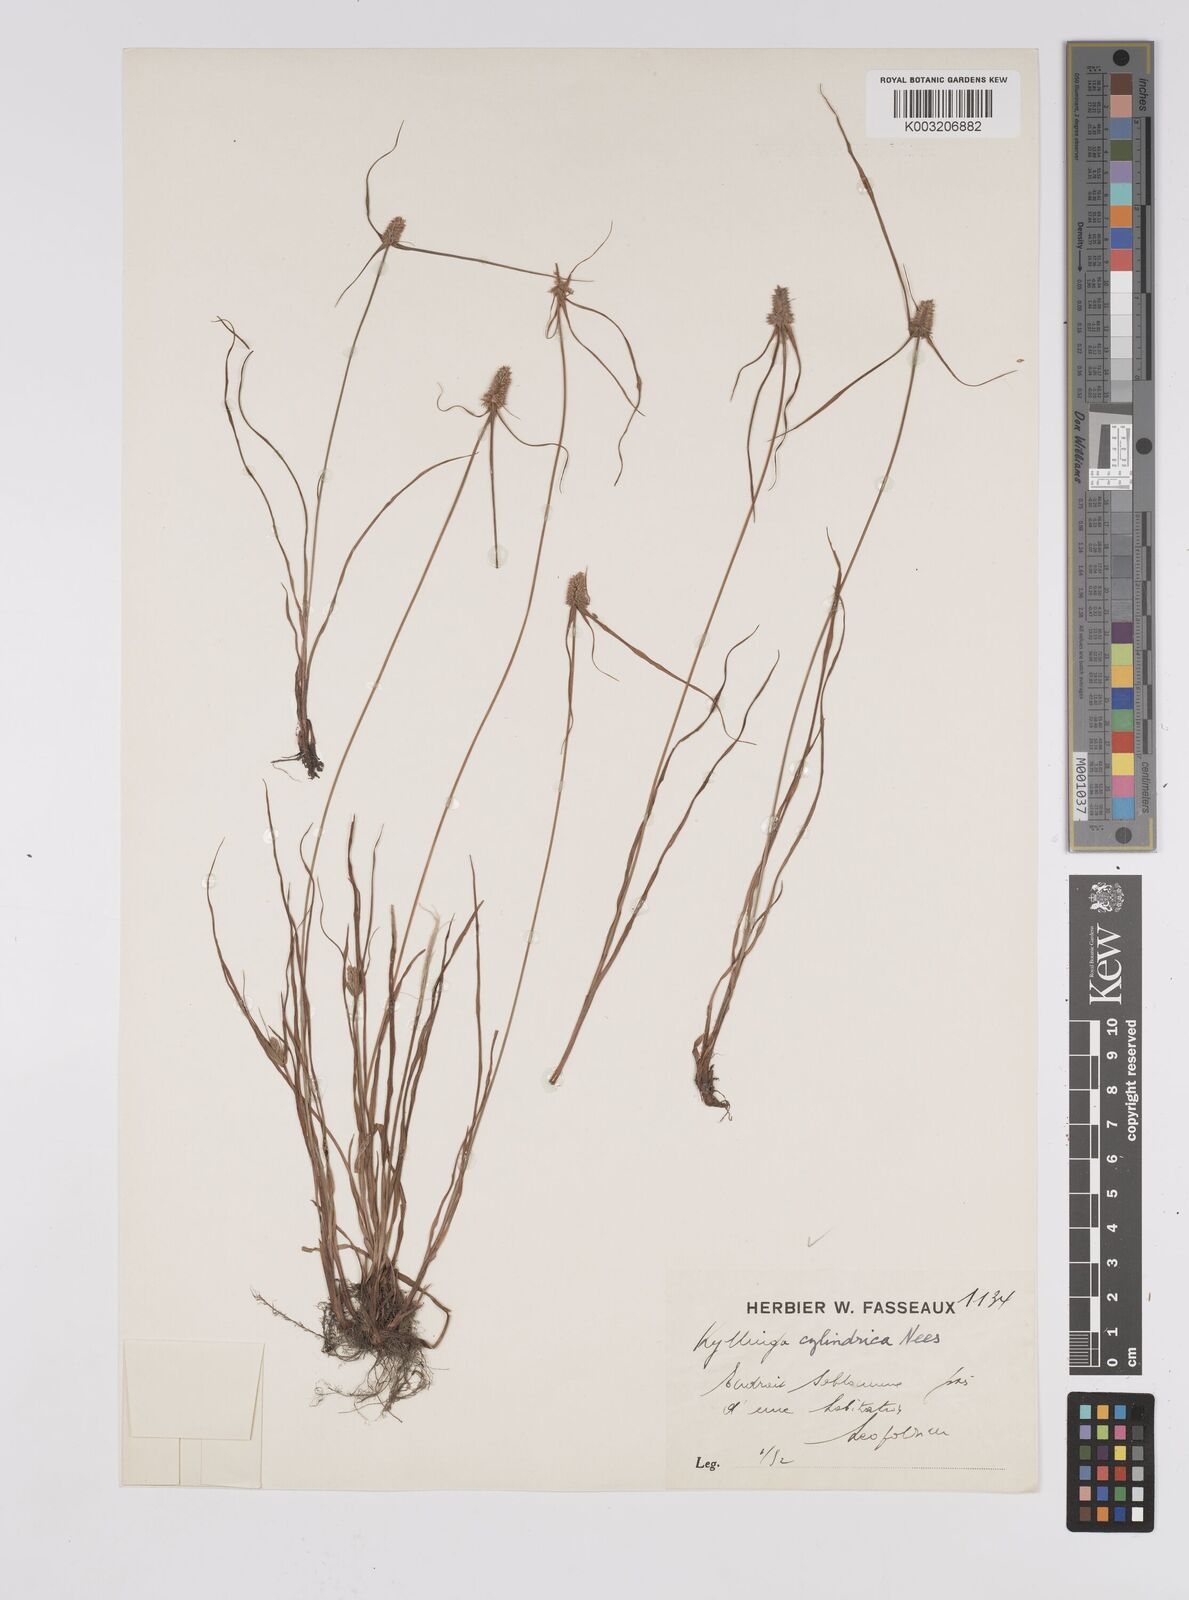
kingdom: Plantae
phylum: Tracheophyta
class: Liliopsida
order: Poales
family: Cyperaceae
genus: Cyperus
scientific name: Cyperus odoratus
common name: Fragrant flatsedge
